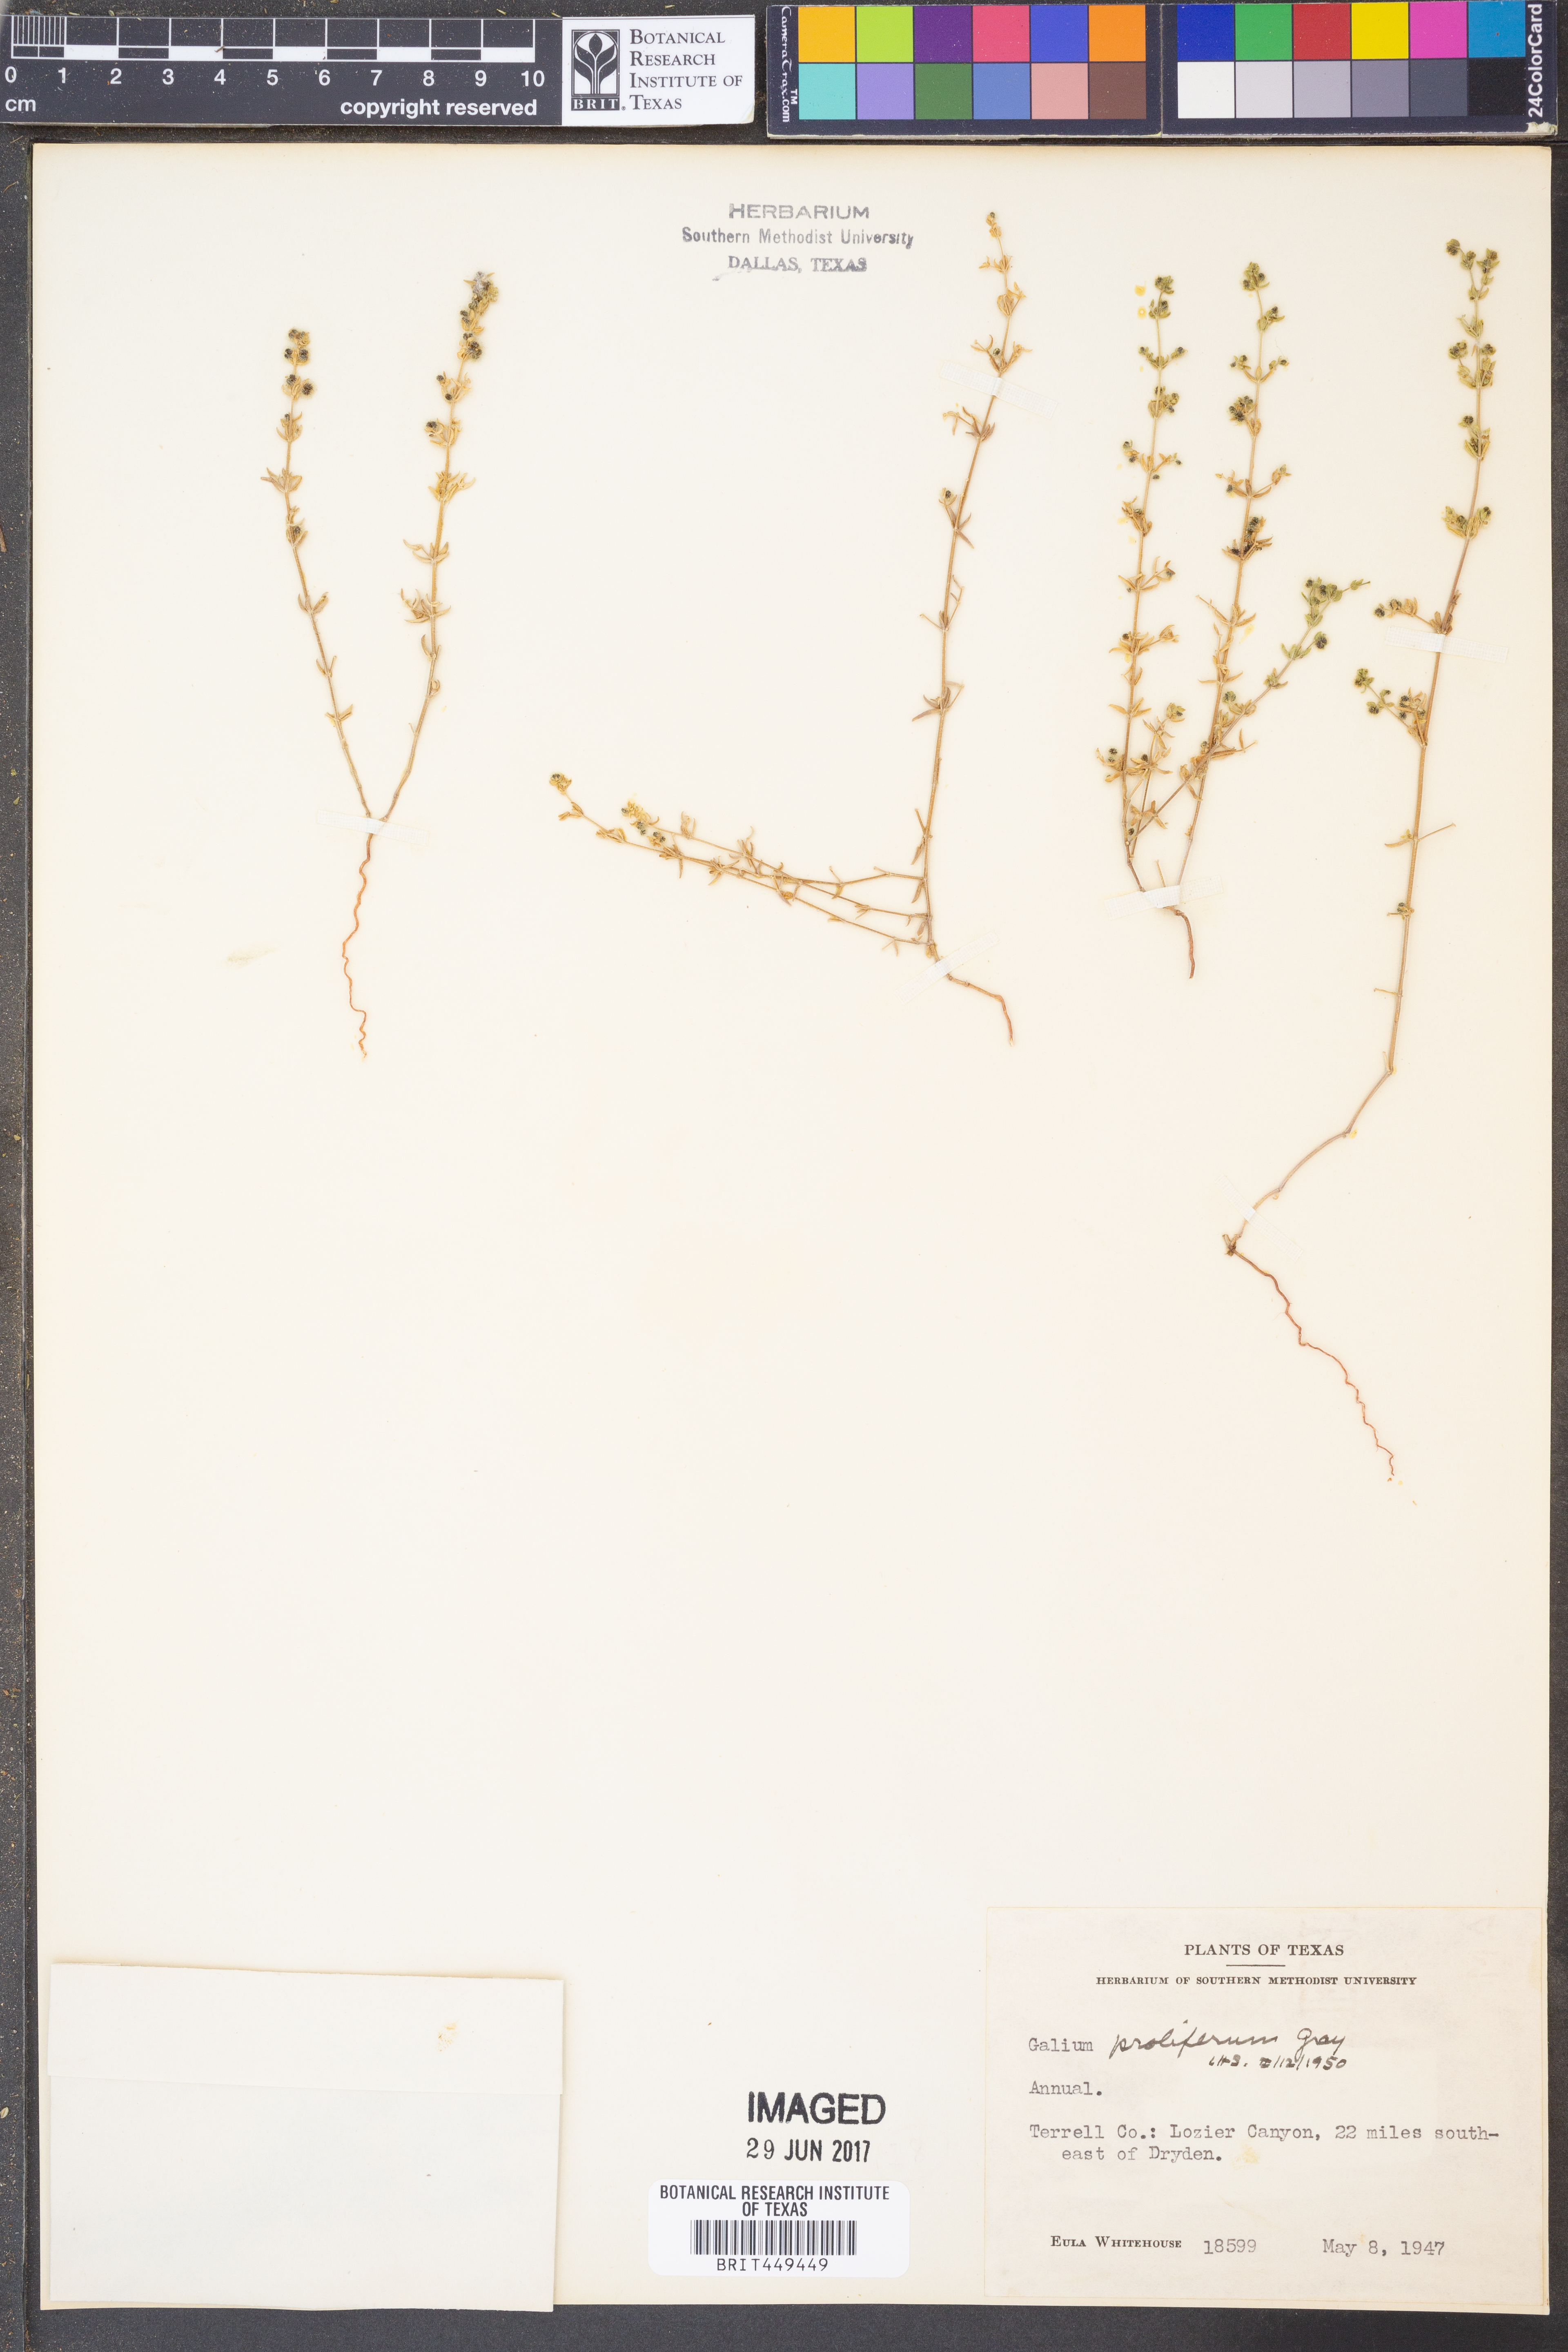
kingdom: Plantae
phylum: Tracheophyta
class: Magnoliopsida
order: Gentianales
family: Rubiaceae
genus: Galium
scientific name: Galium proliferum
